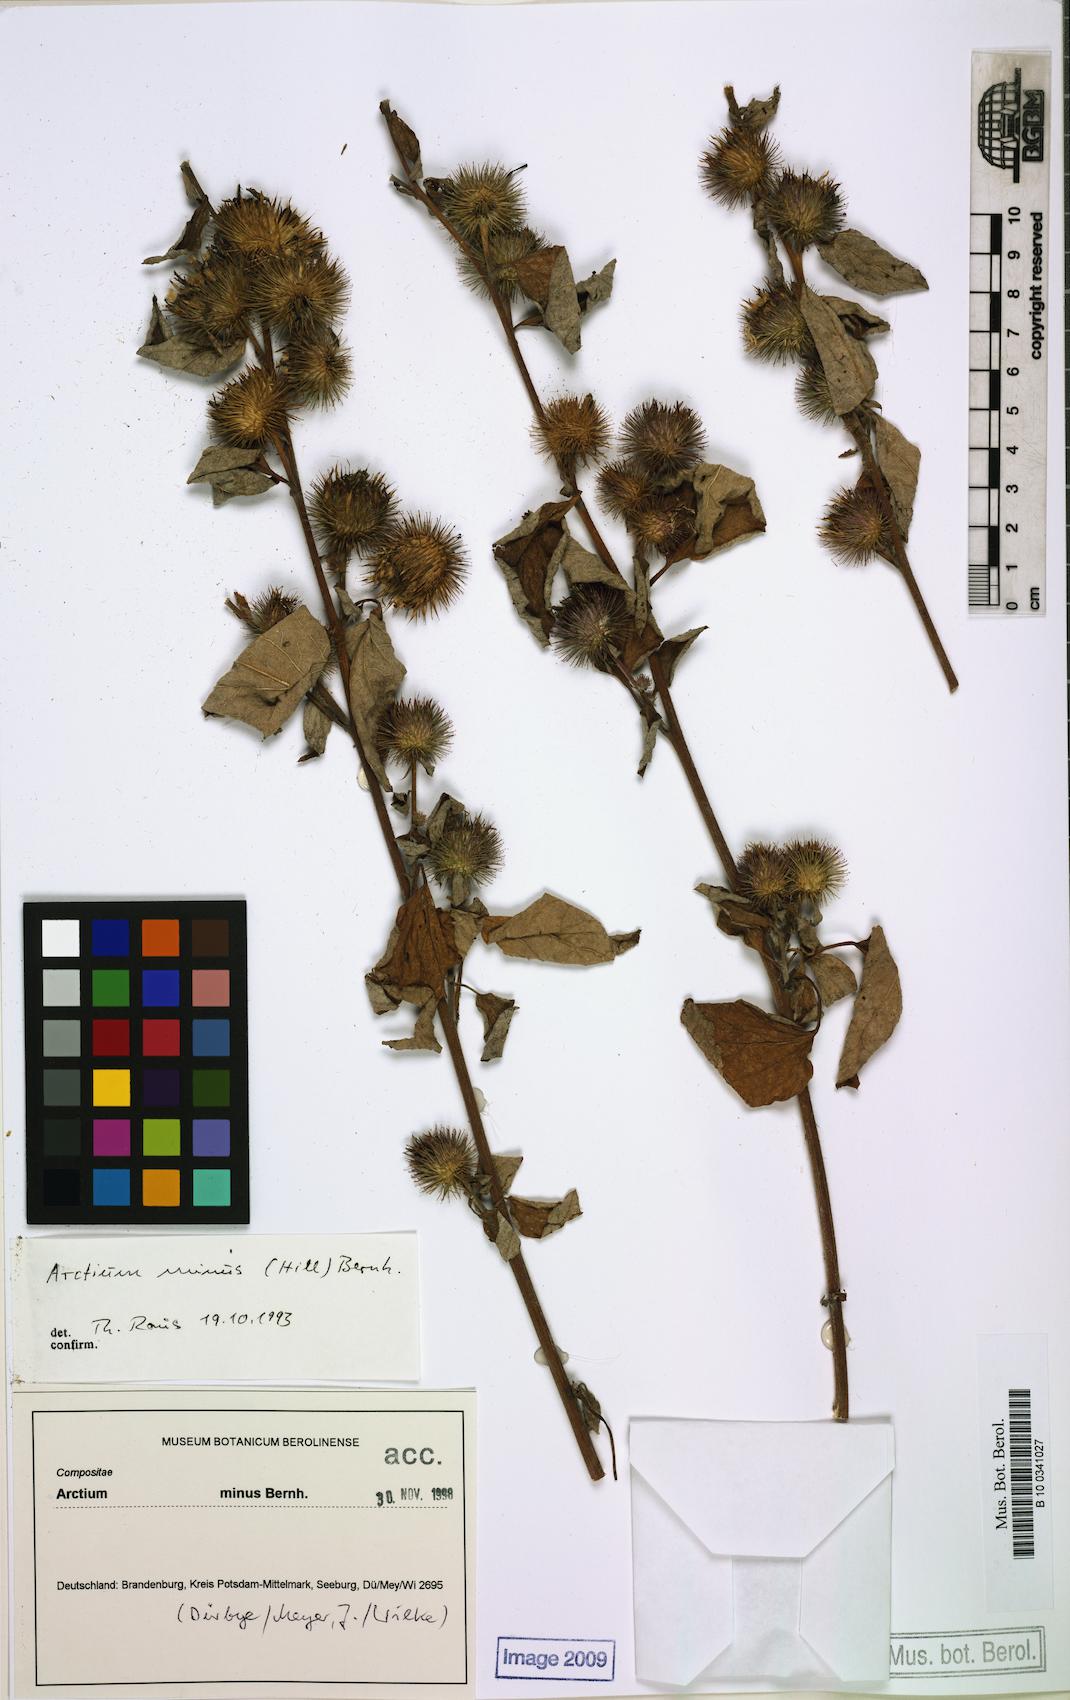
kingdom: Plantae
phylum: Tracheophyta
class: Magnoliopsida
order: Asterales
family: Asteraceae
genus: Arctium
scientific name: Arctium minus
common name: Lesser burdock
